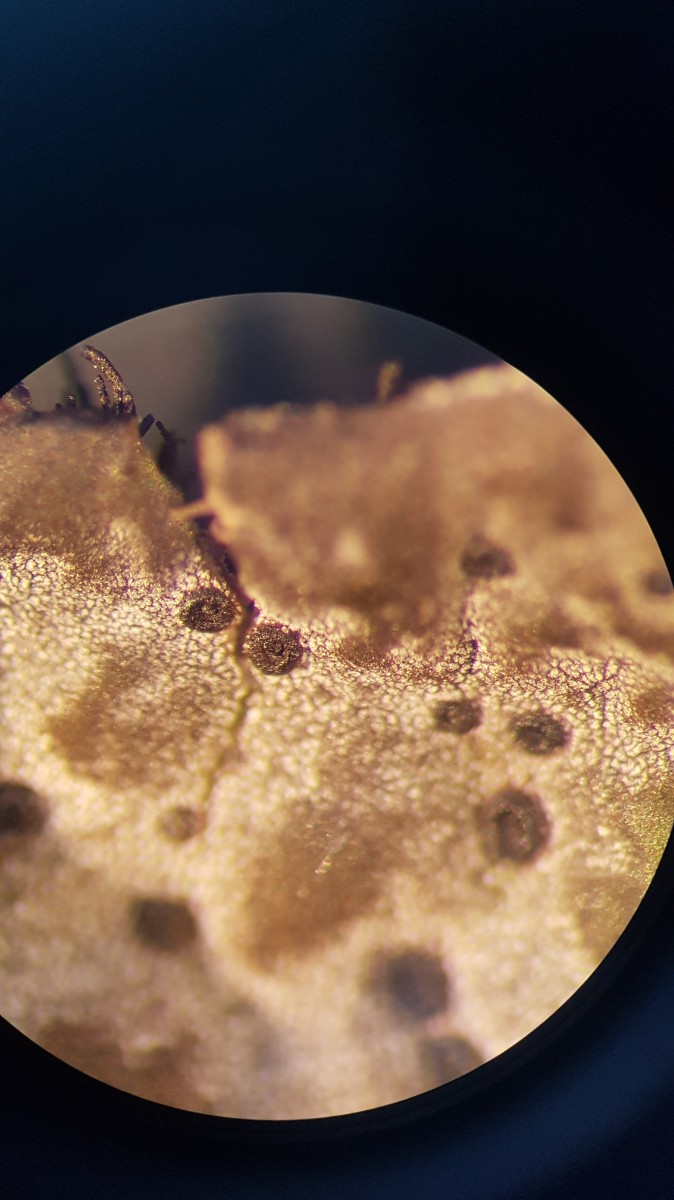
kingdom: Fungi
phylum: Ascomycota
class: Lecanoromycetes
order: Umbilicariales
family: Umbilicariaceae
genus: Umbilicaria
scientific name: Umbilicaria
